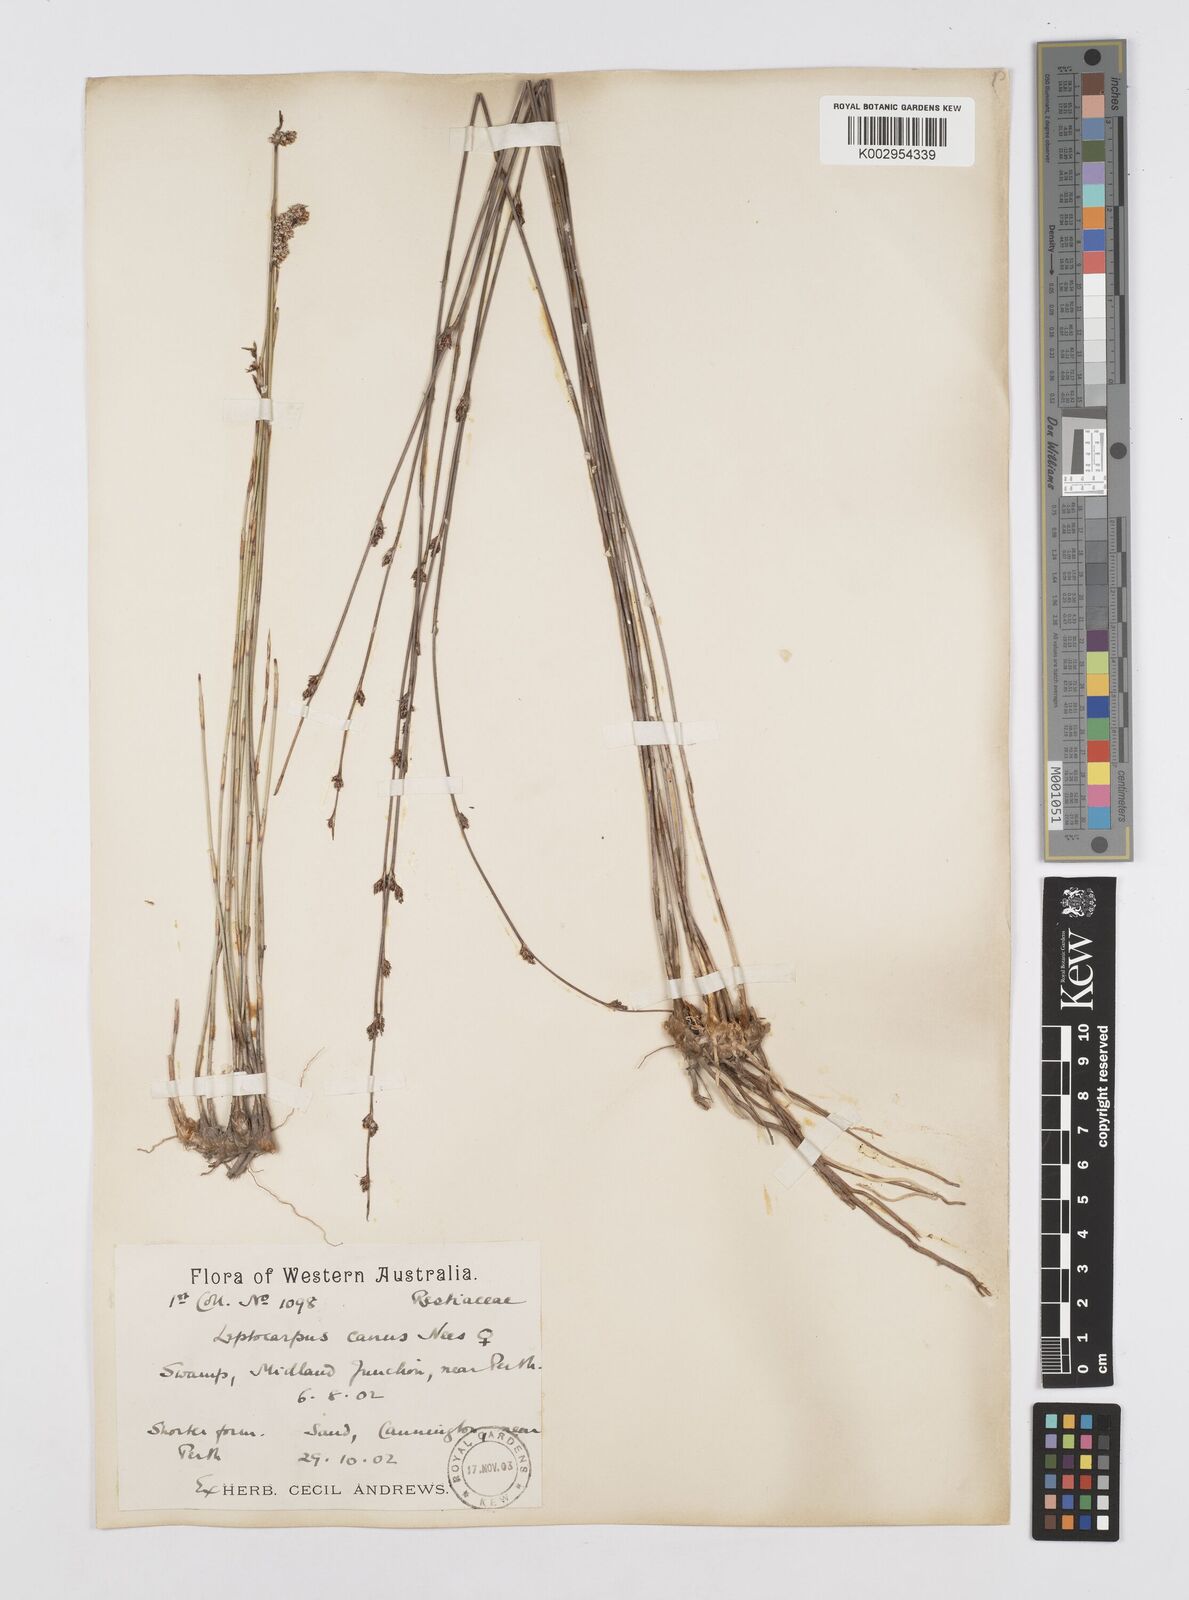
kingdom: Plantae
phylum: Tracheophyta
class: Liliopsida
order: Poales
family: Restionaceae
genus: Leptocarpus
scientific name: Leptocarpus canus
